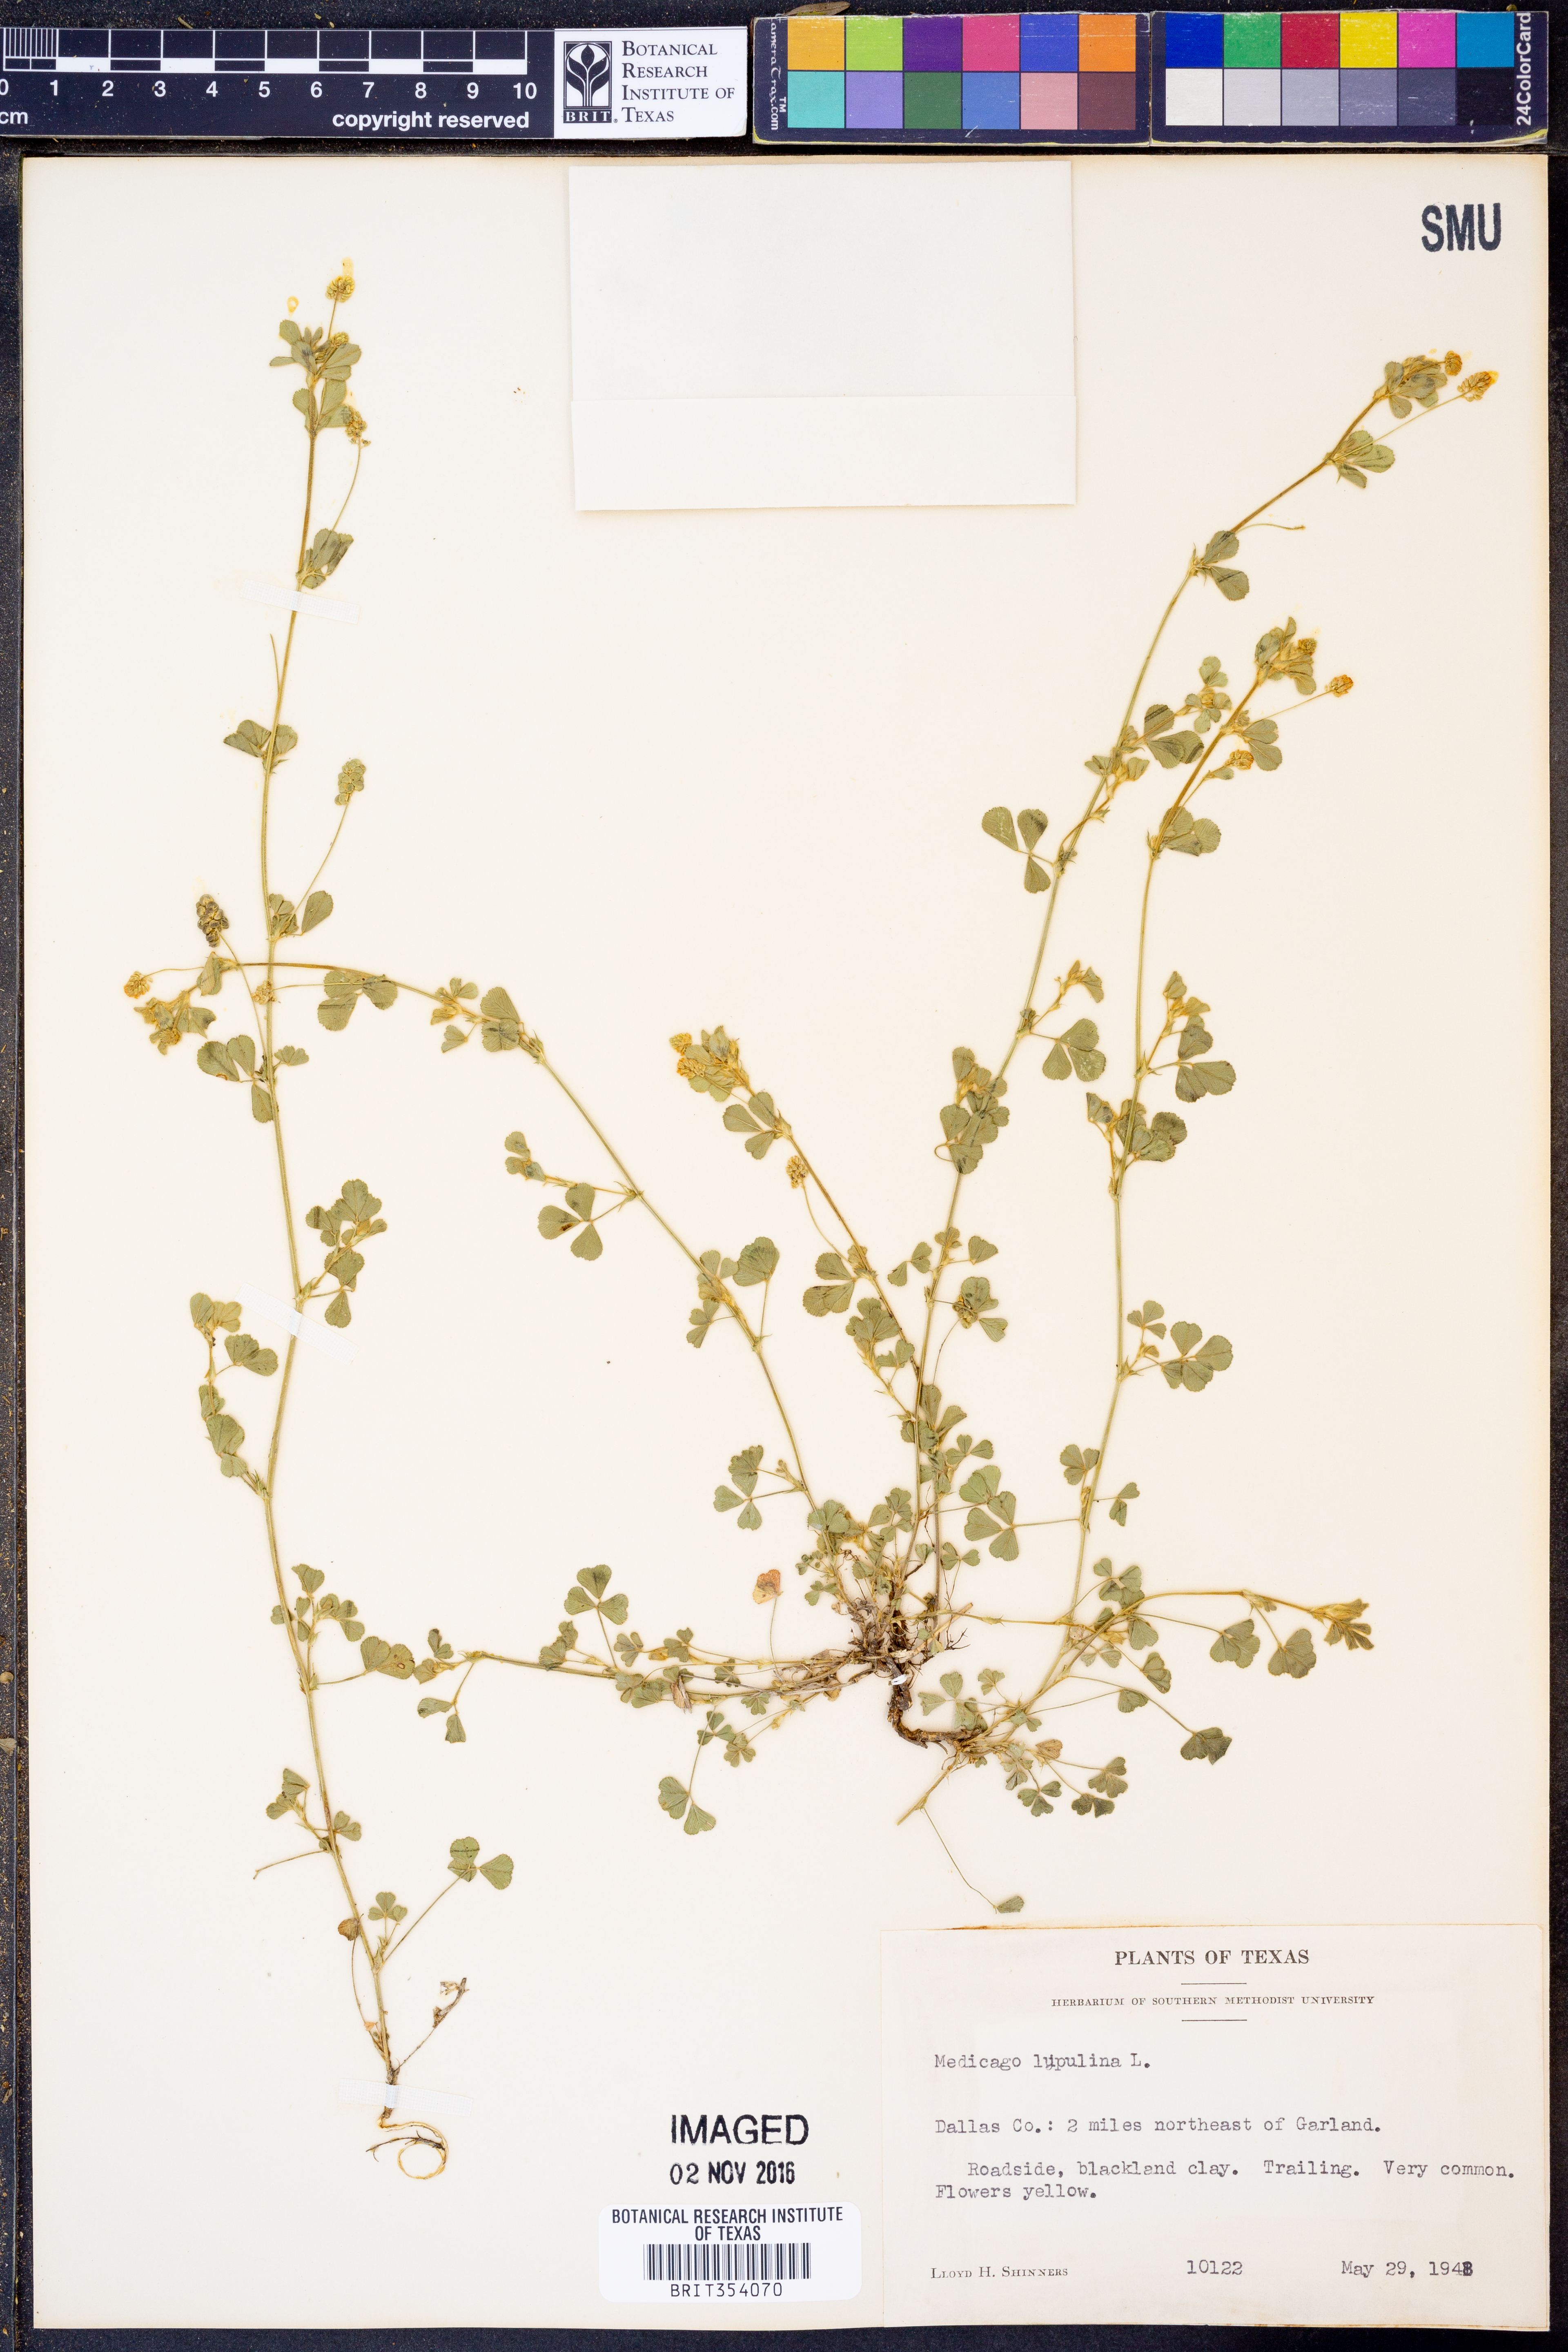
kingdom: Plantae
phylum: Tracheophyta
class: Magnoliopsida
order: Fabales
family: Fabaceae
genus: Medicago
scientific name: Medicago lupulina
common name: Black medick
